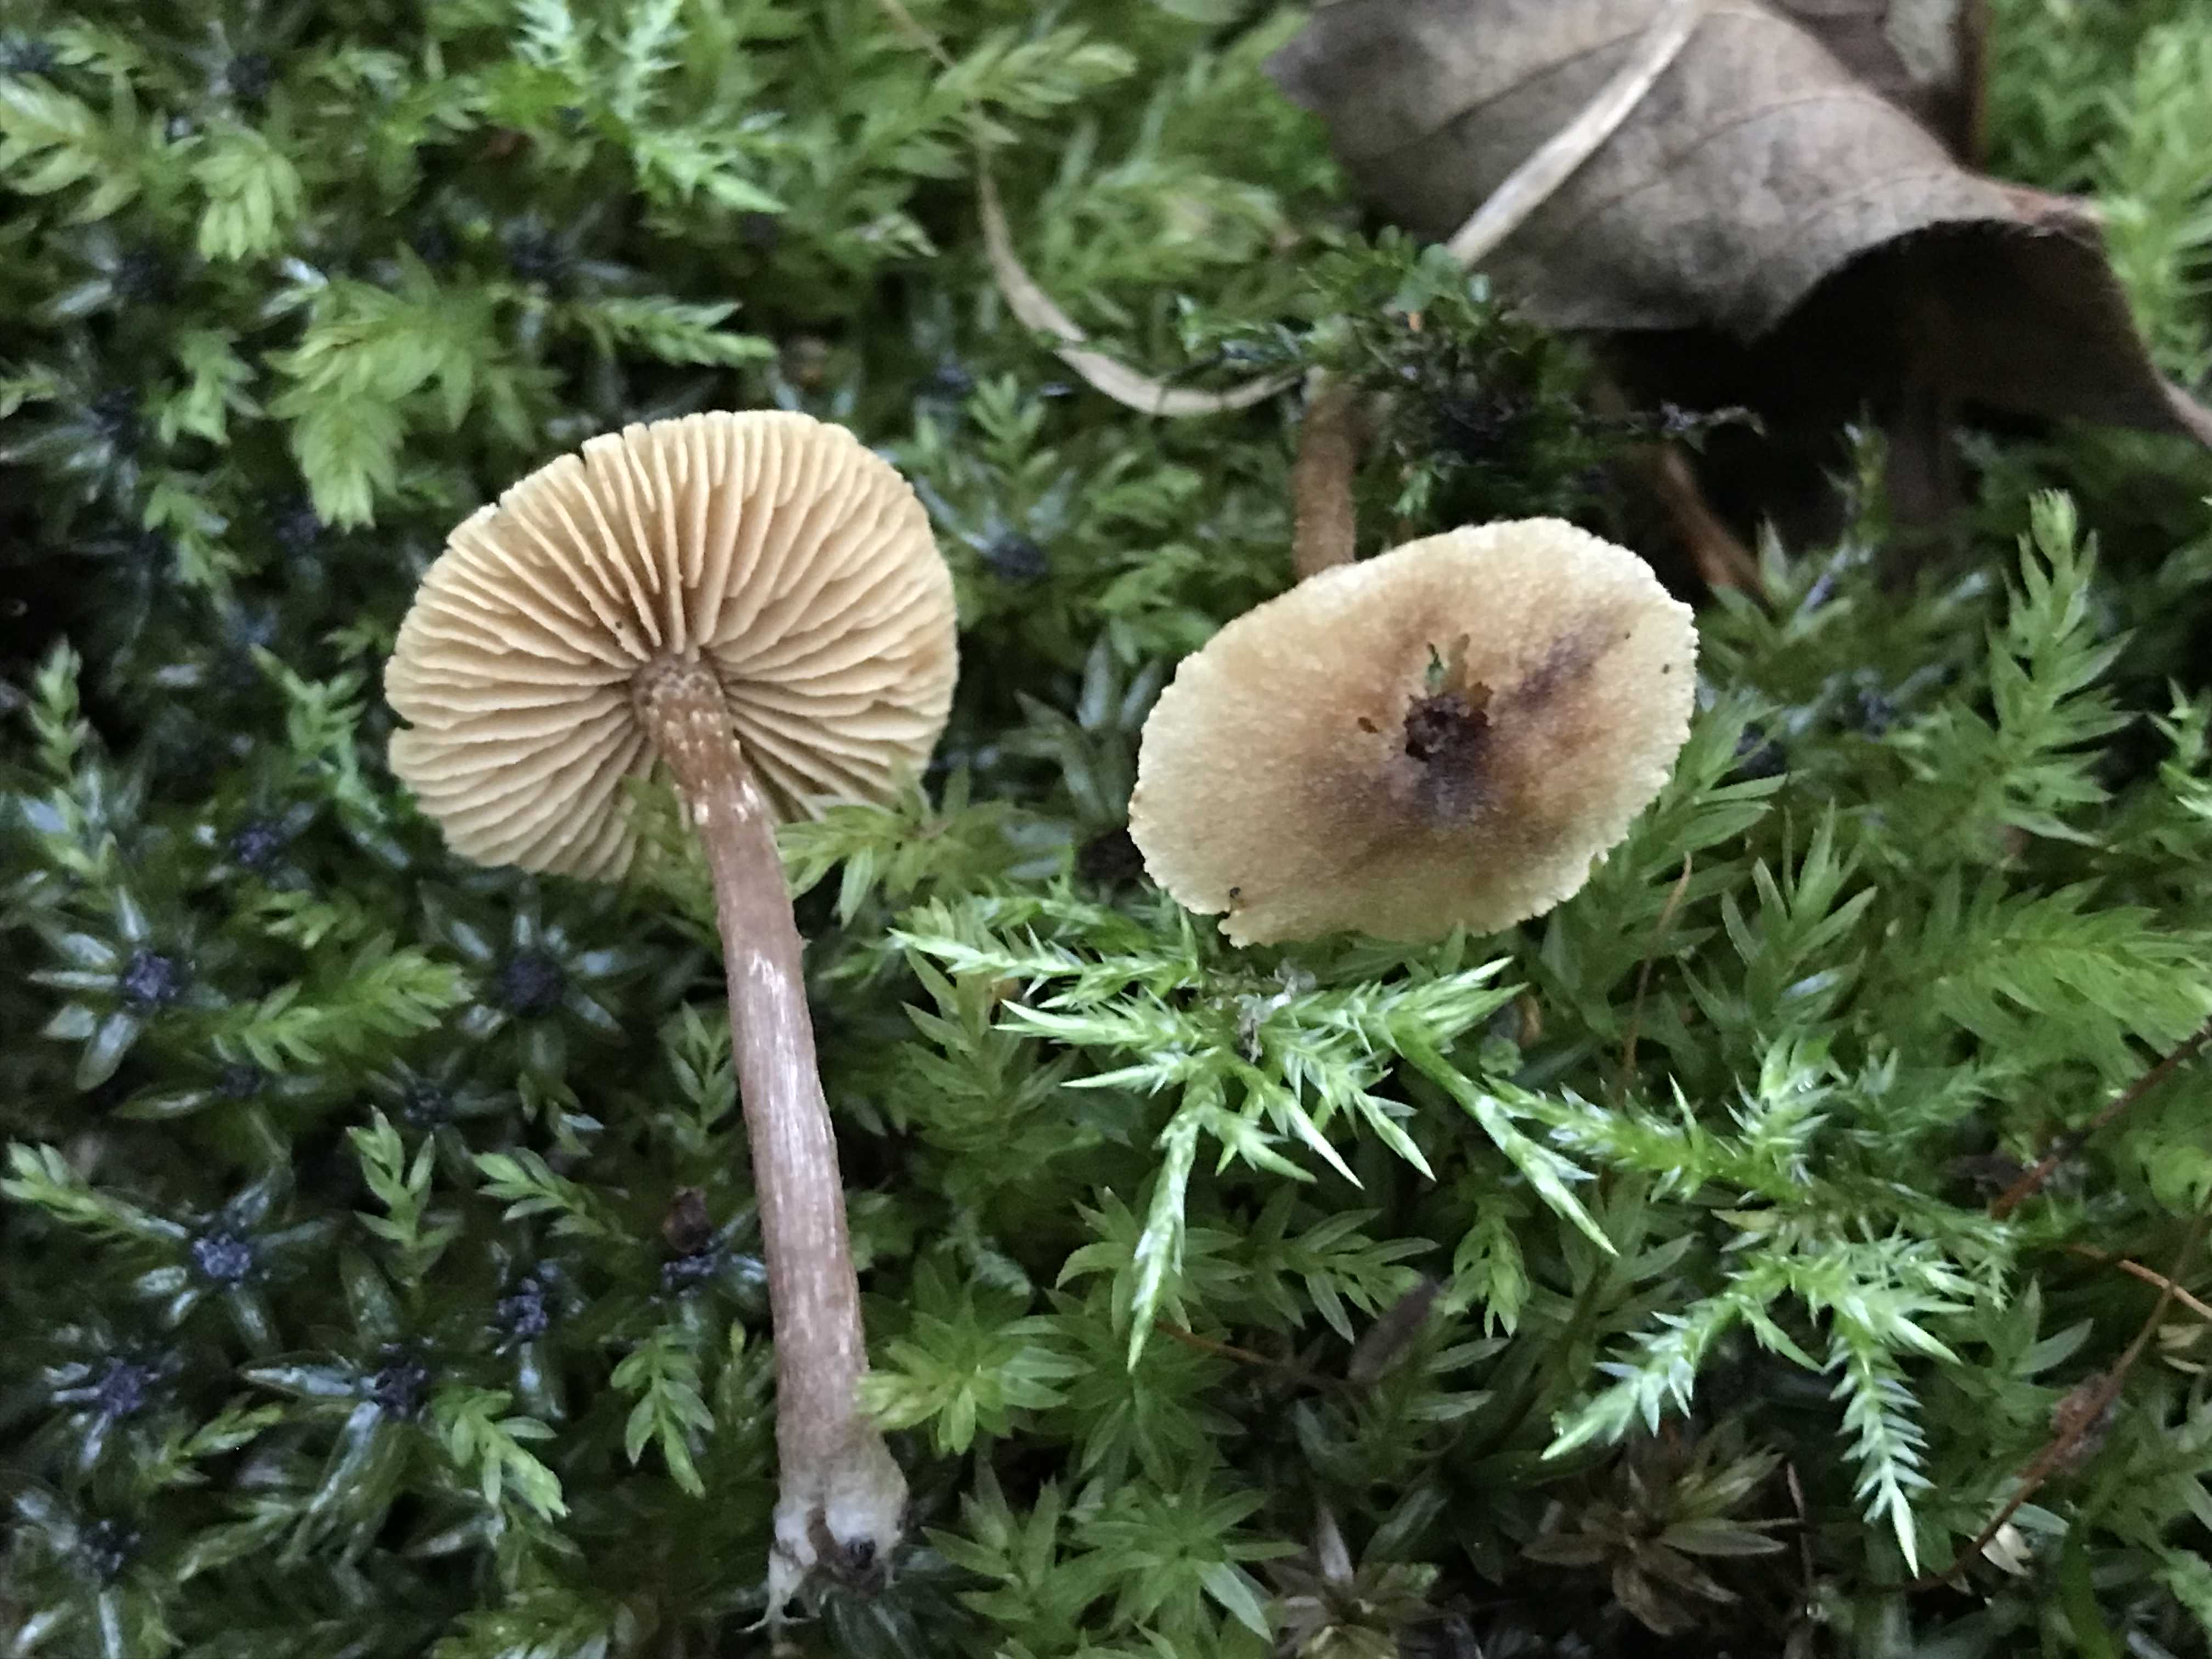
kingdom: Fungi
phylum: Basidiomycota
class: Agaricomycetes
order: Agaricales
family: Hymenogastraceae
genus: Naucoria
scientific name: Naucoria
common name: knaphat
